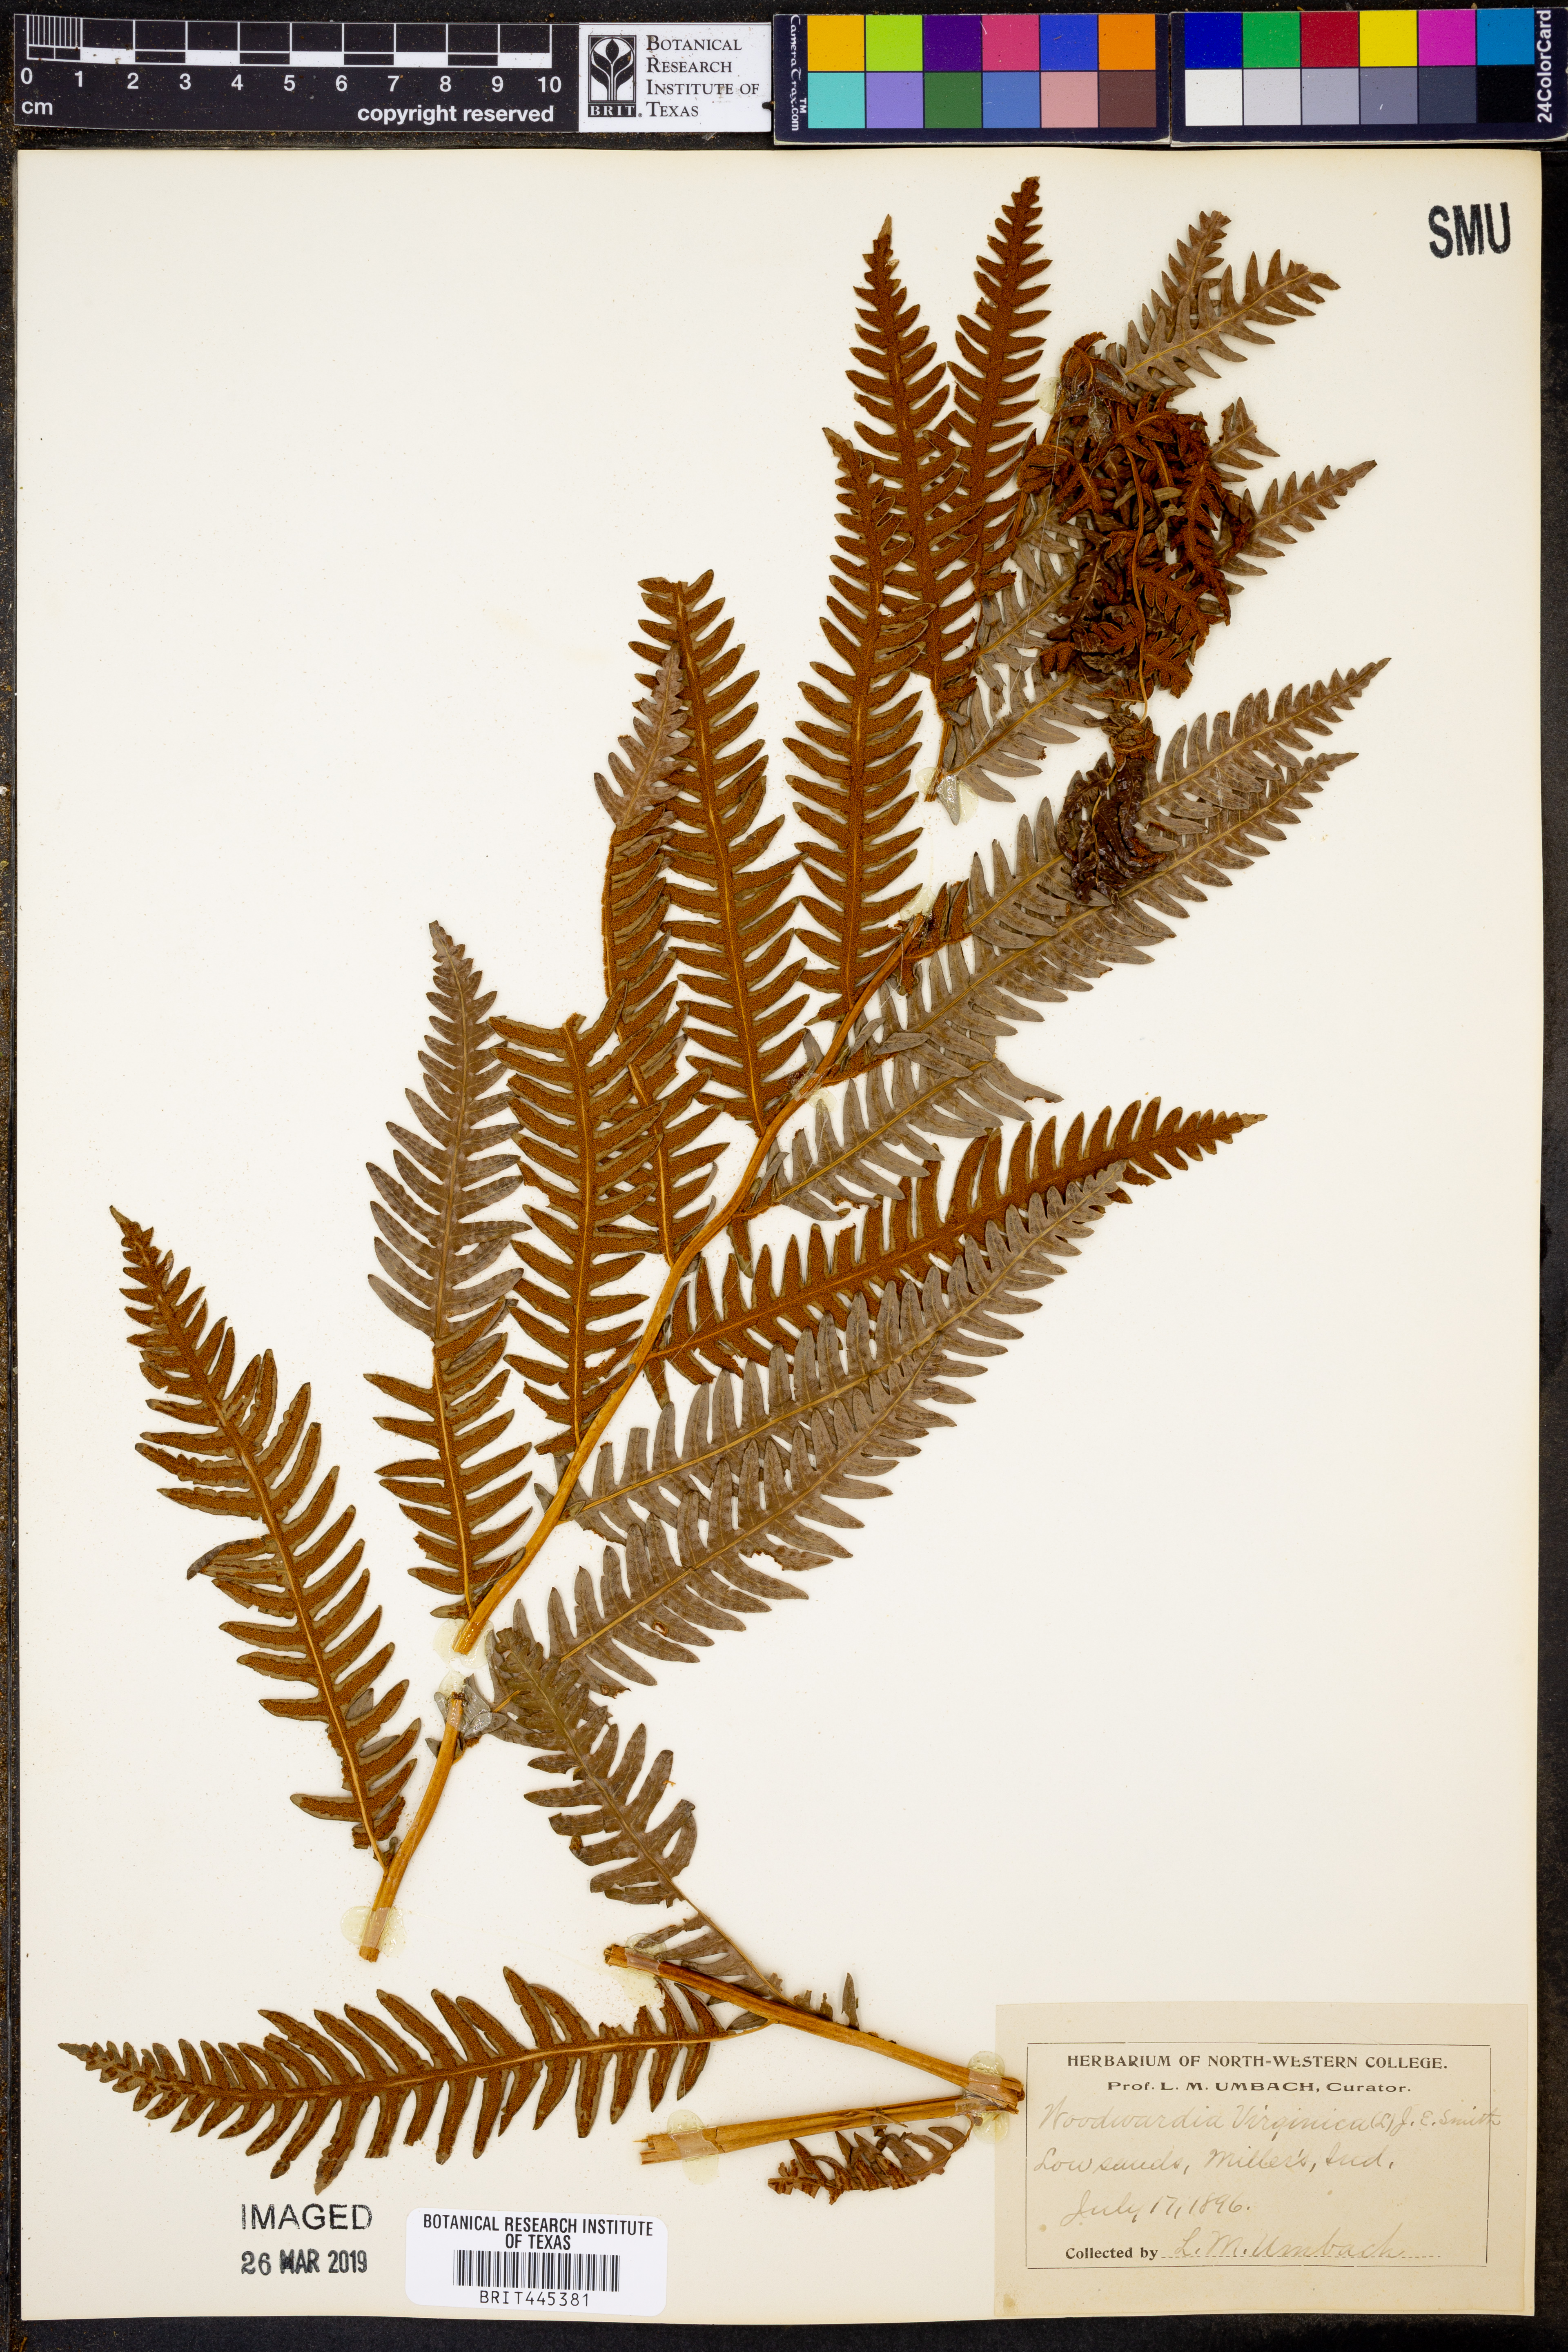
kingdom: Plantae
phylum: Tracheophyta
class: Polypodiopsida
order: Polypodiales
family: Blechnaceae
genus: Anchistea
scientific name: Anchistea virginica
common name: Virginia chain fern
